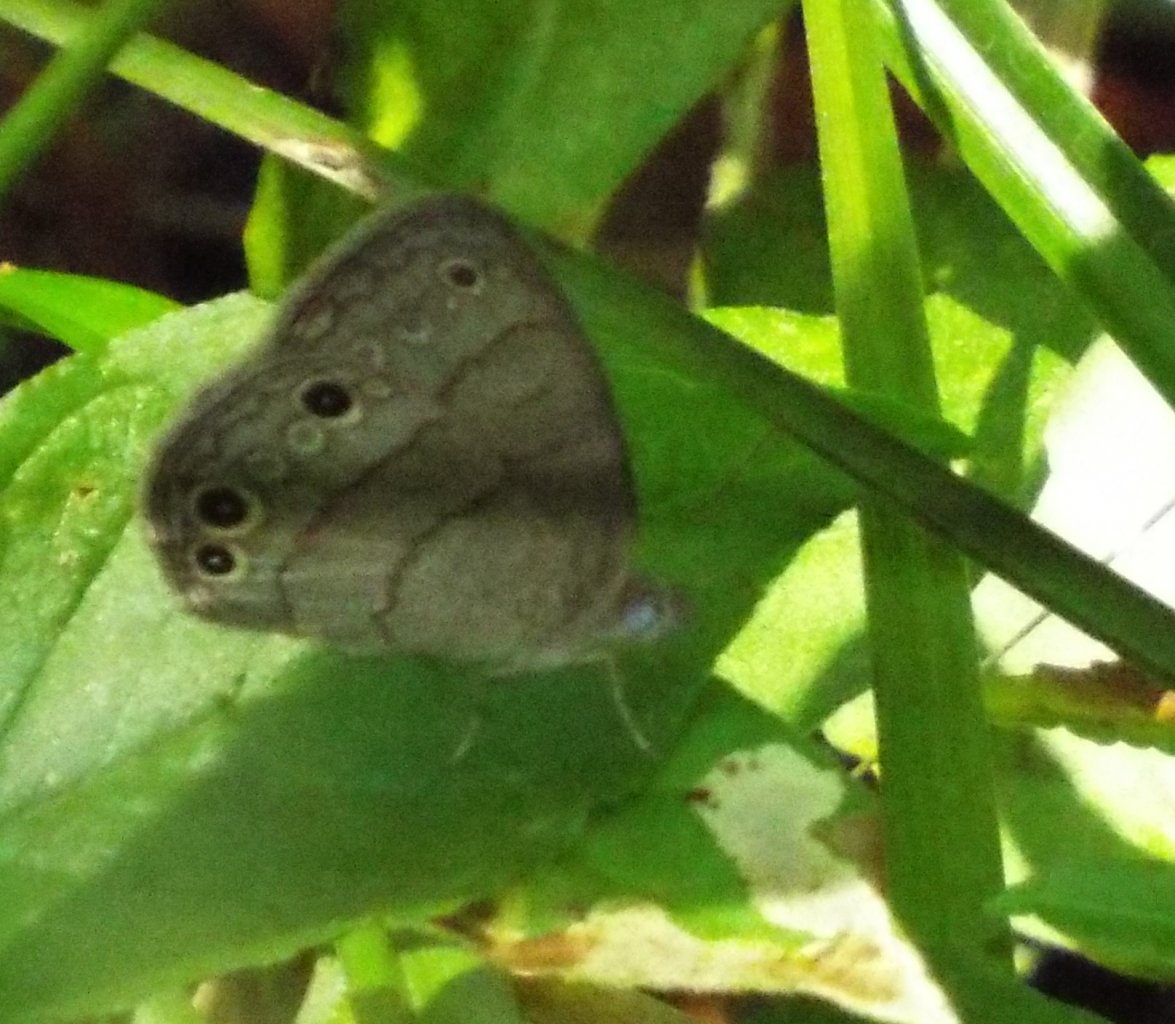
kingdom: Animalia
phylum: Arthropoda
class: Insecta
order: Lepidoptera
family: Nymphalidae
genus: Hermeuptychia
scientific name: Hermeuptychia intricata
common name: Intricate Satyr
